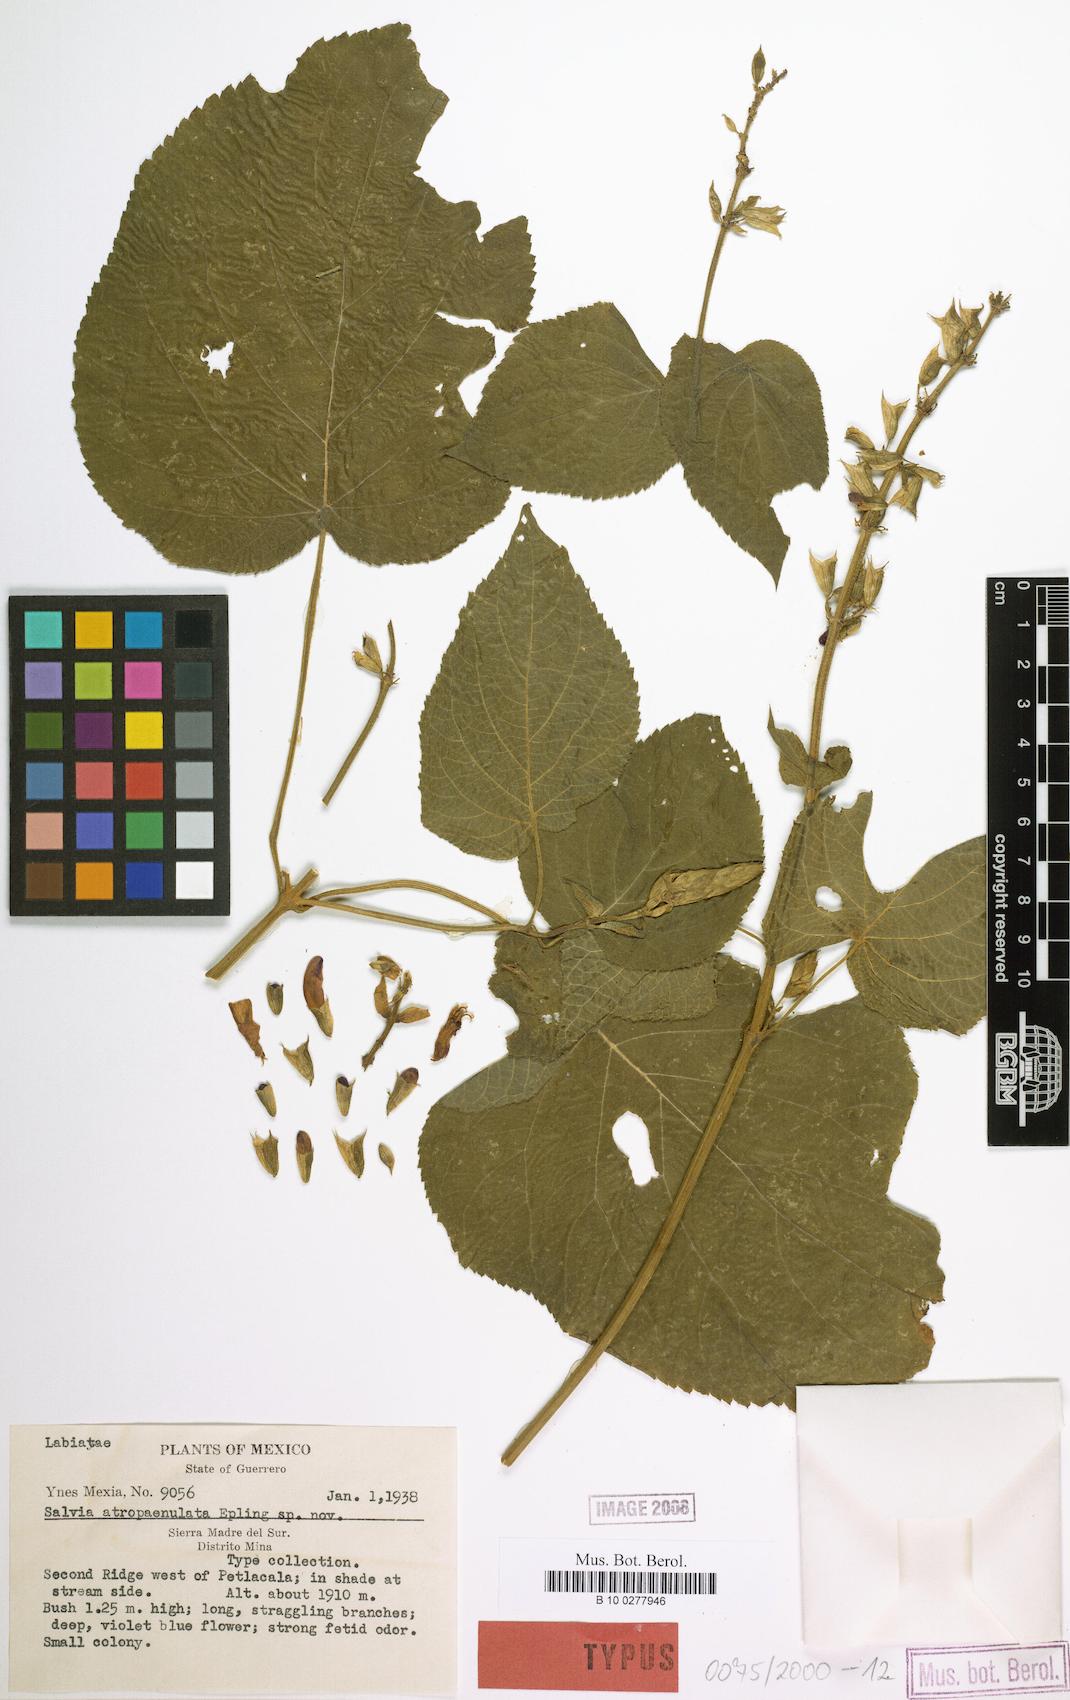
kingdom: Plantae
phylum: Tracheophyta
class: Magnoliopsida
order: Lamiales
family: Lamiaceae
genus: Salvia
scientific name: Salvia atropaenulata
